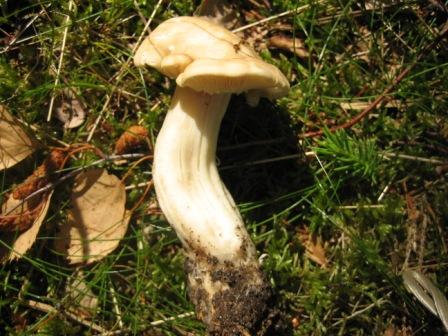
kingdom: Fungi
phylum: Basidiomycota
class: Agaricomycetes
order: Agaricales
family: Lyophyllaceae
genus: Calocybe
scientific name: Calocybe gambosa
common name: vårmusseron
